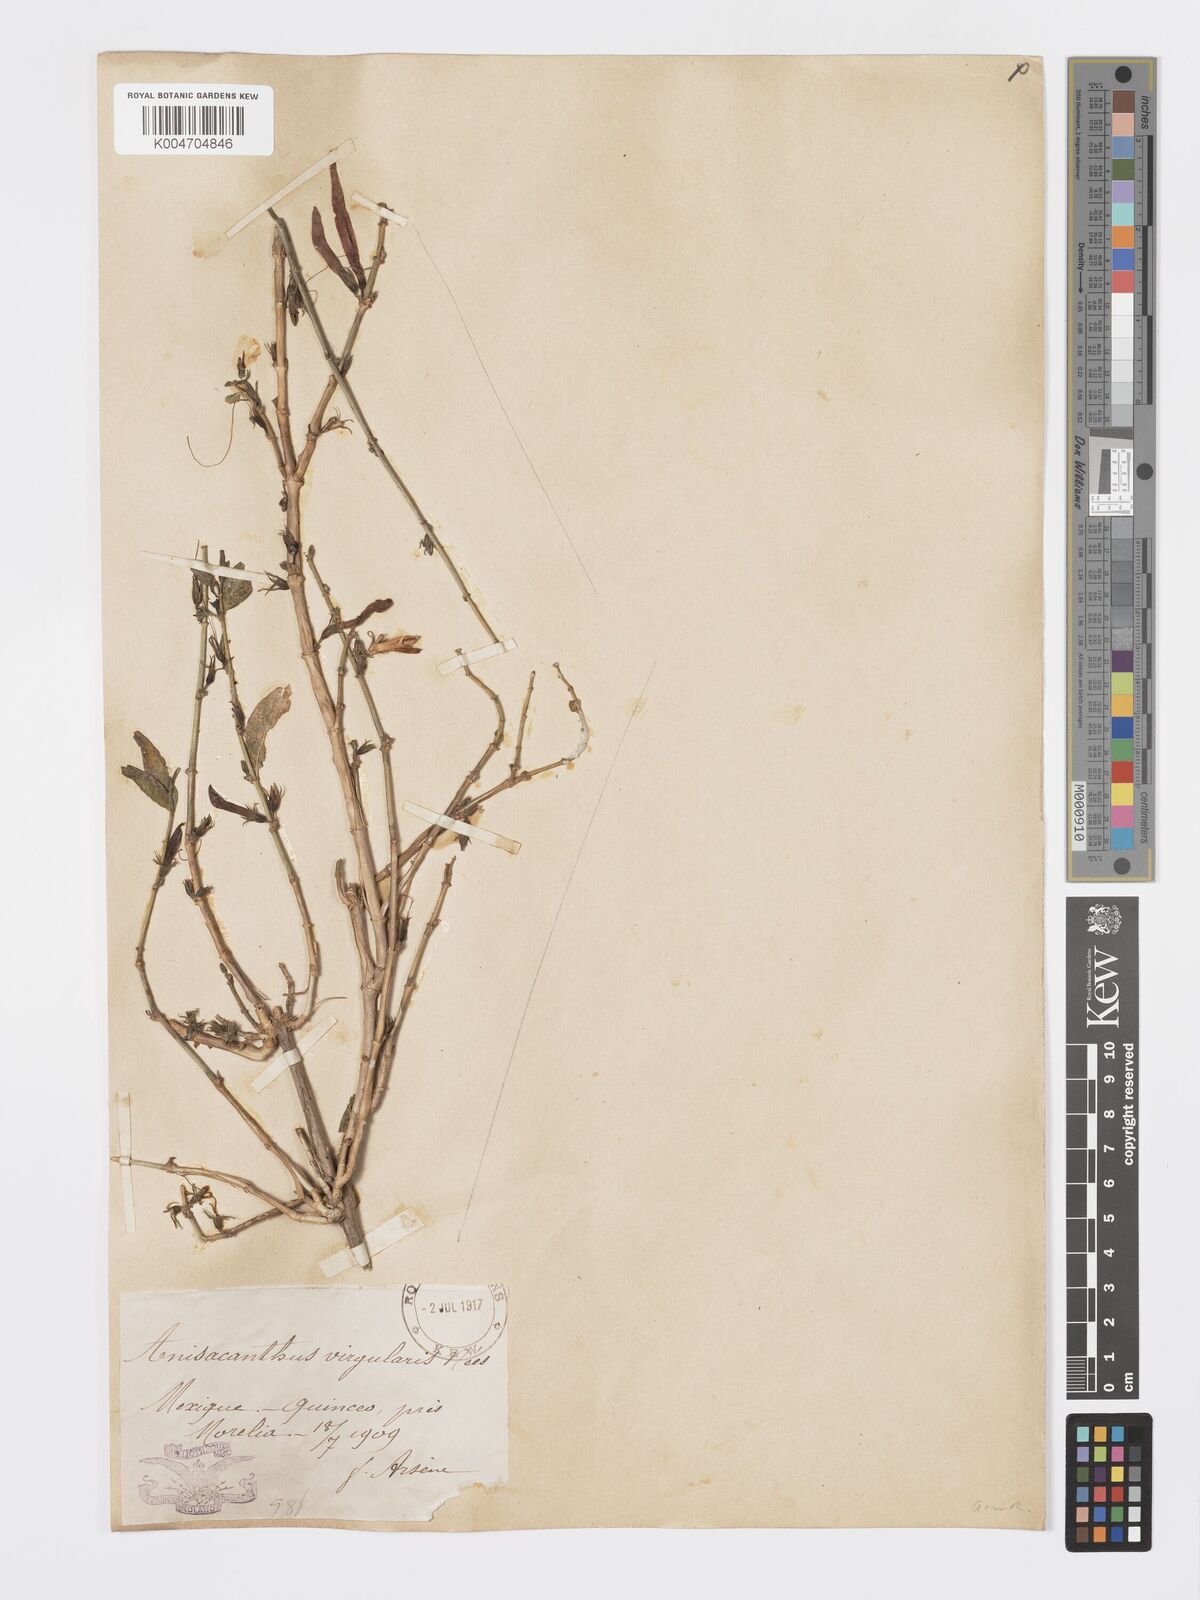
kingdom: Plantae
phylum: Tracheophyta
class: Magnoliopsida
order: Lamiales
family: Acanthaceae
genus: Anisacanthus
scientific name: Anisacanthus quadrifidus
